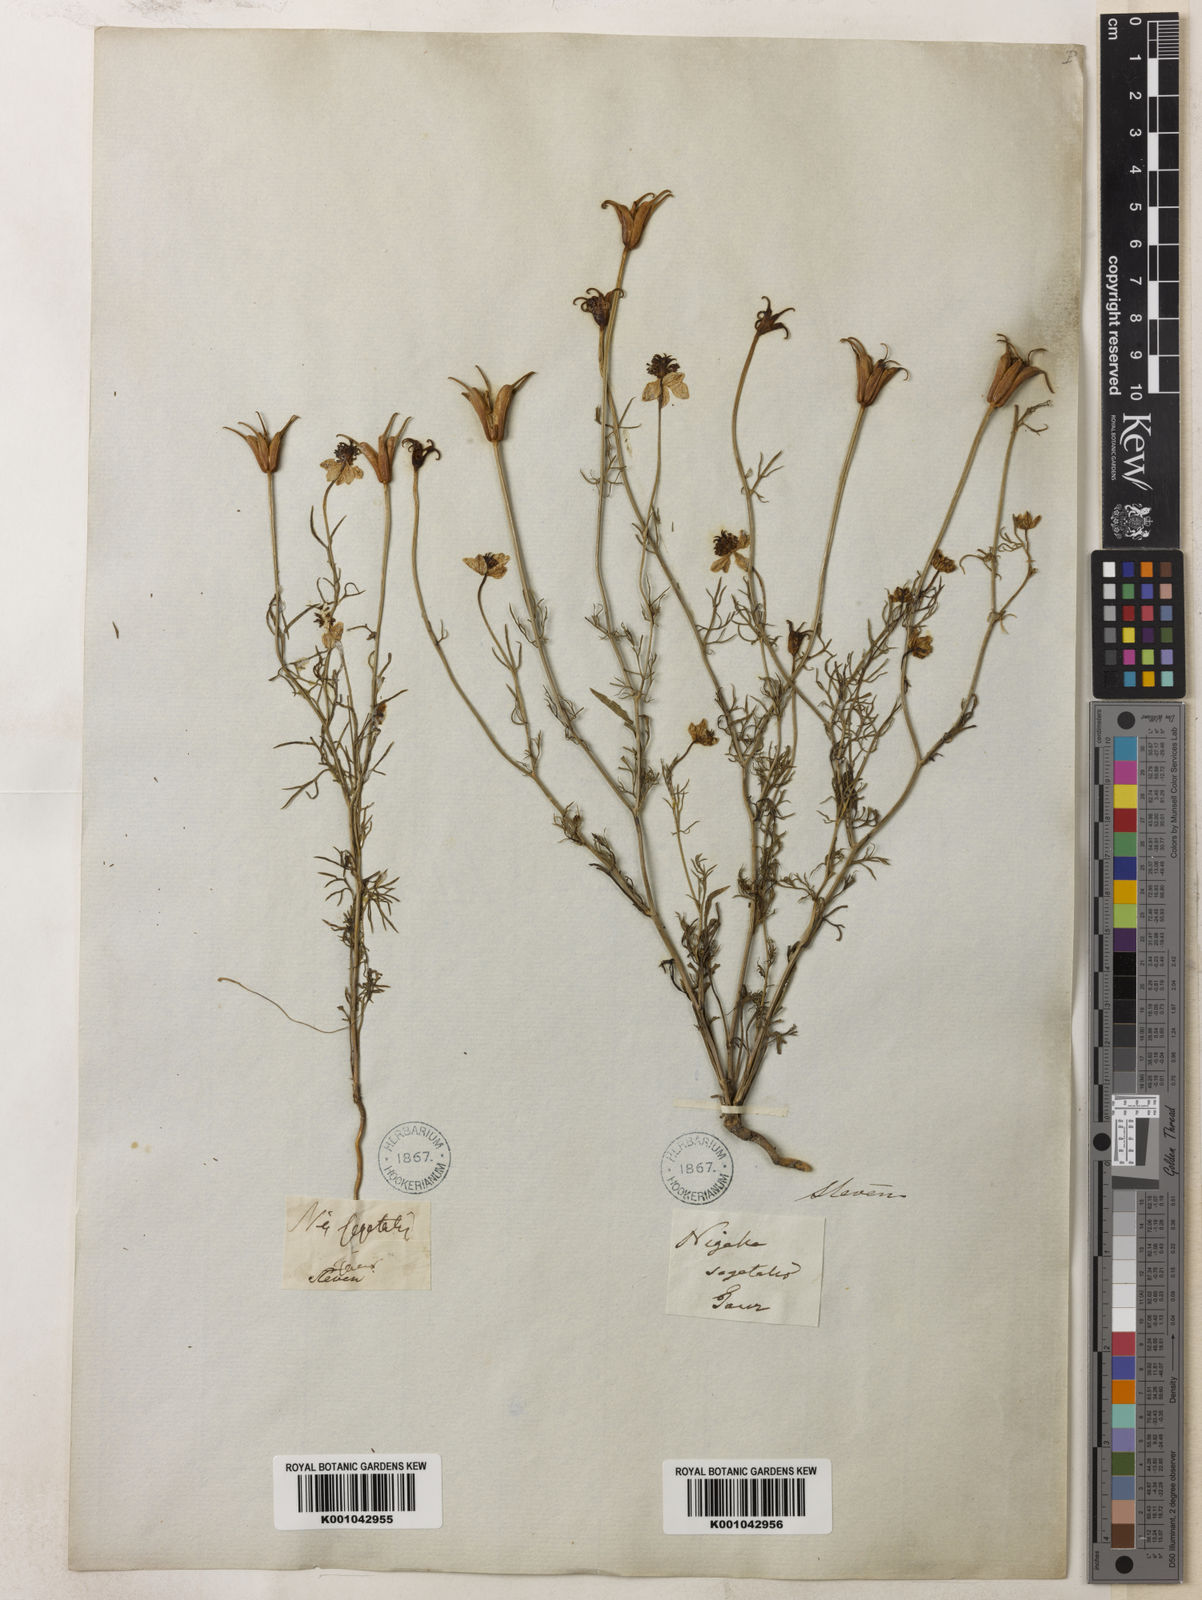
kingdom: Plantae
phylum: Tracheophyta
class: Magnoliopsida
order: Ranunculales
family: Ranunculaceae
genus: Nigella
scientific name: Nigella segetalis
